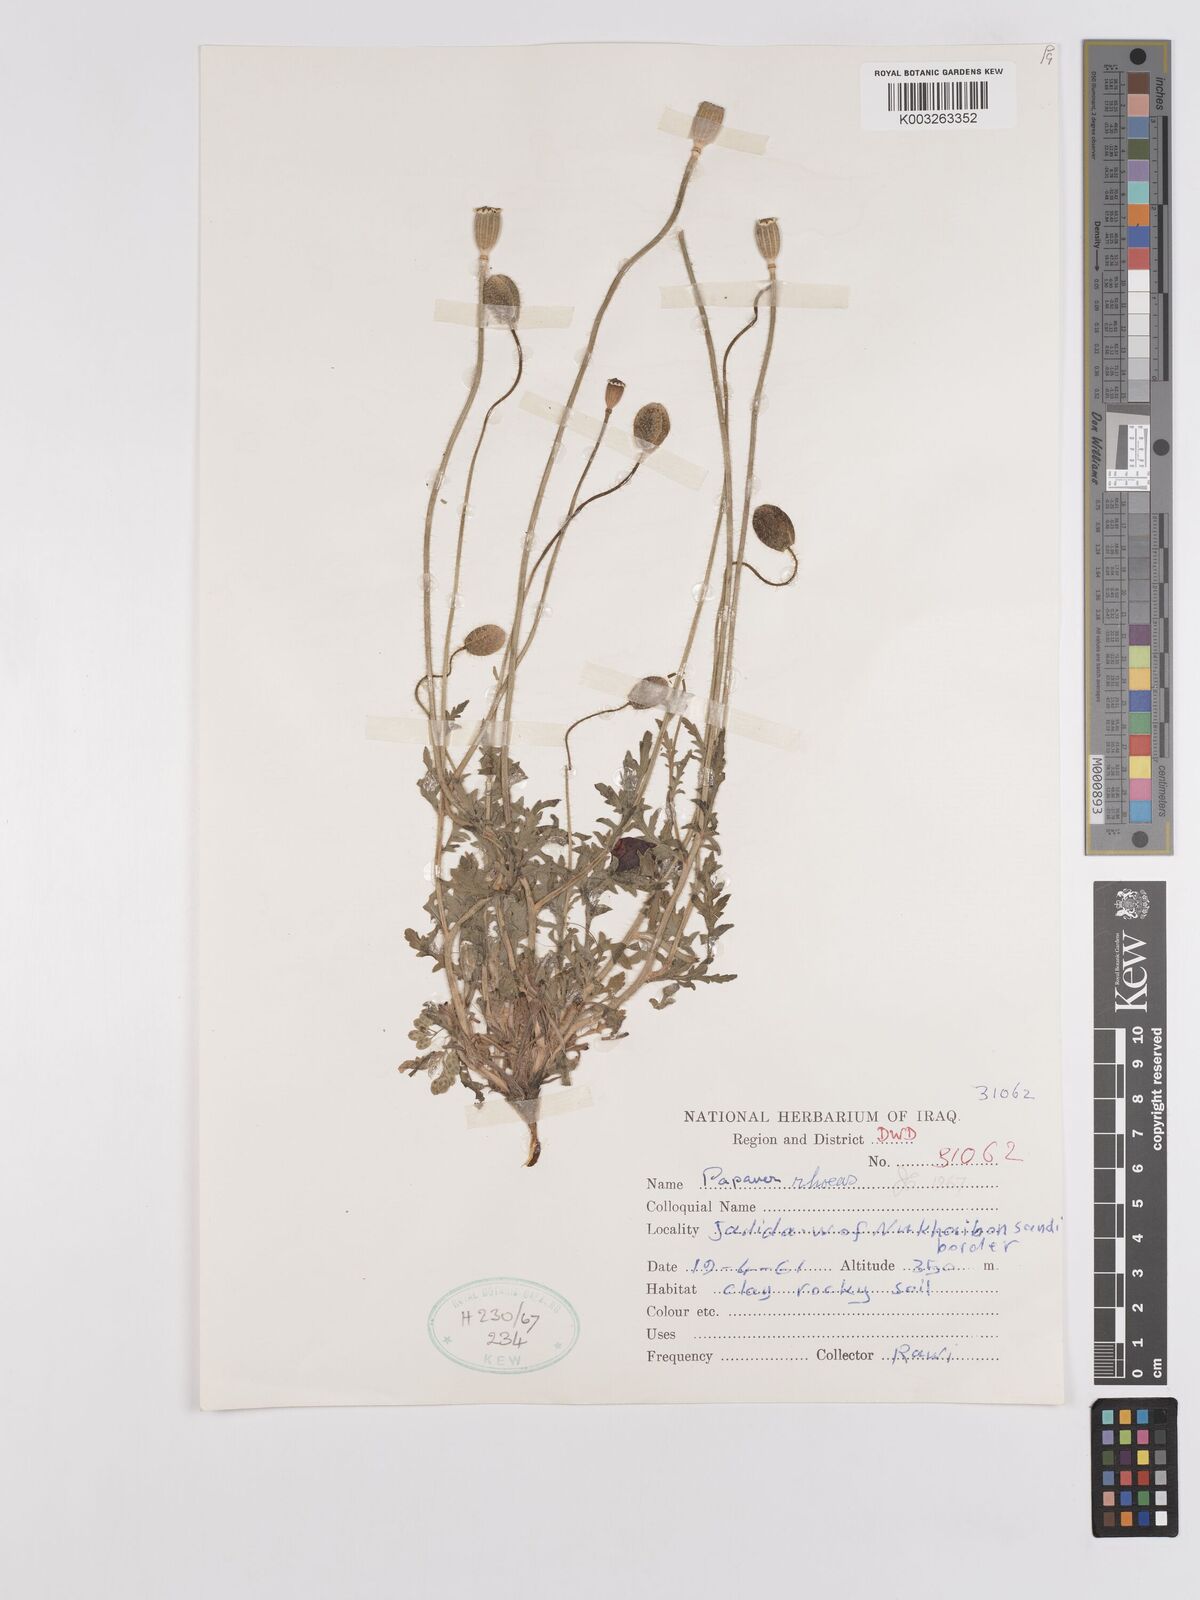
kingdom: Plantae
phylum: Tracheophyta
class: Magnoliopsida
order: Ranunculales
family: Papaveraceae
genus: Papaver
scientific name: Papaver rhoeas
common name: Corn poppy
